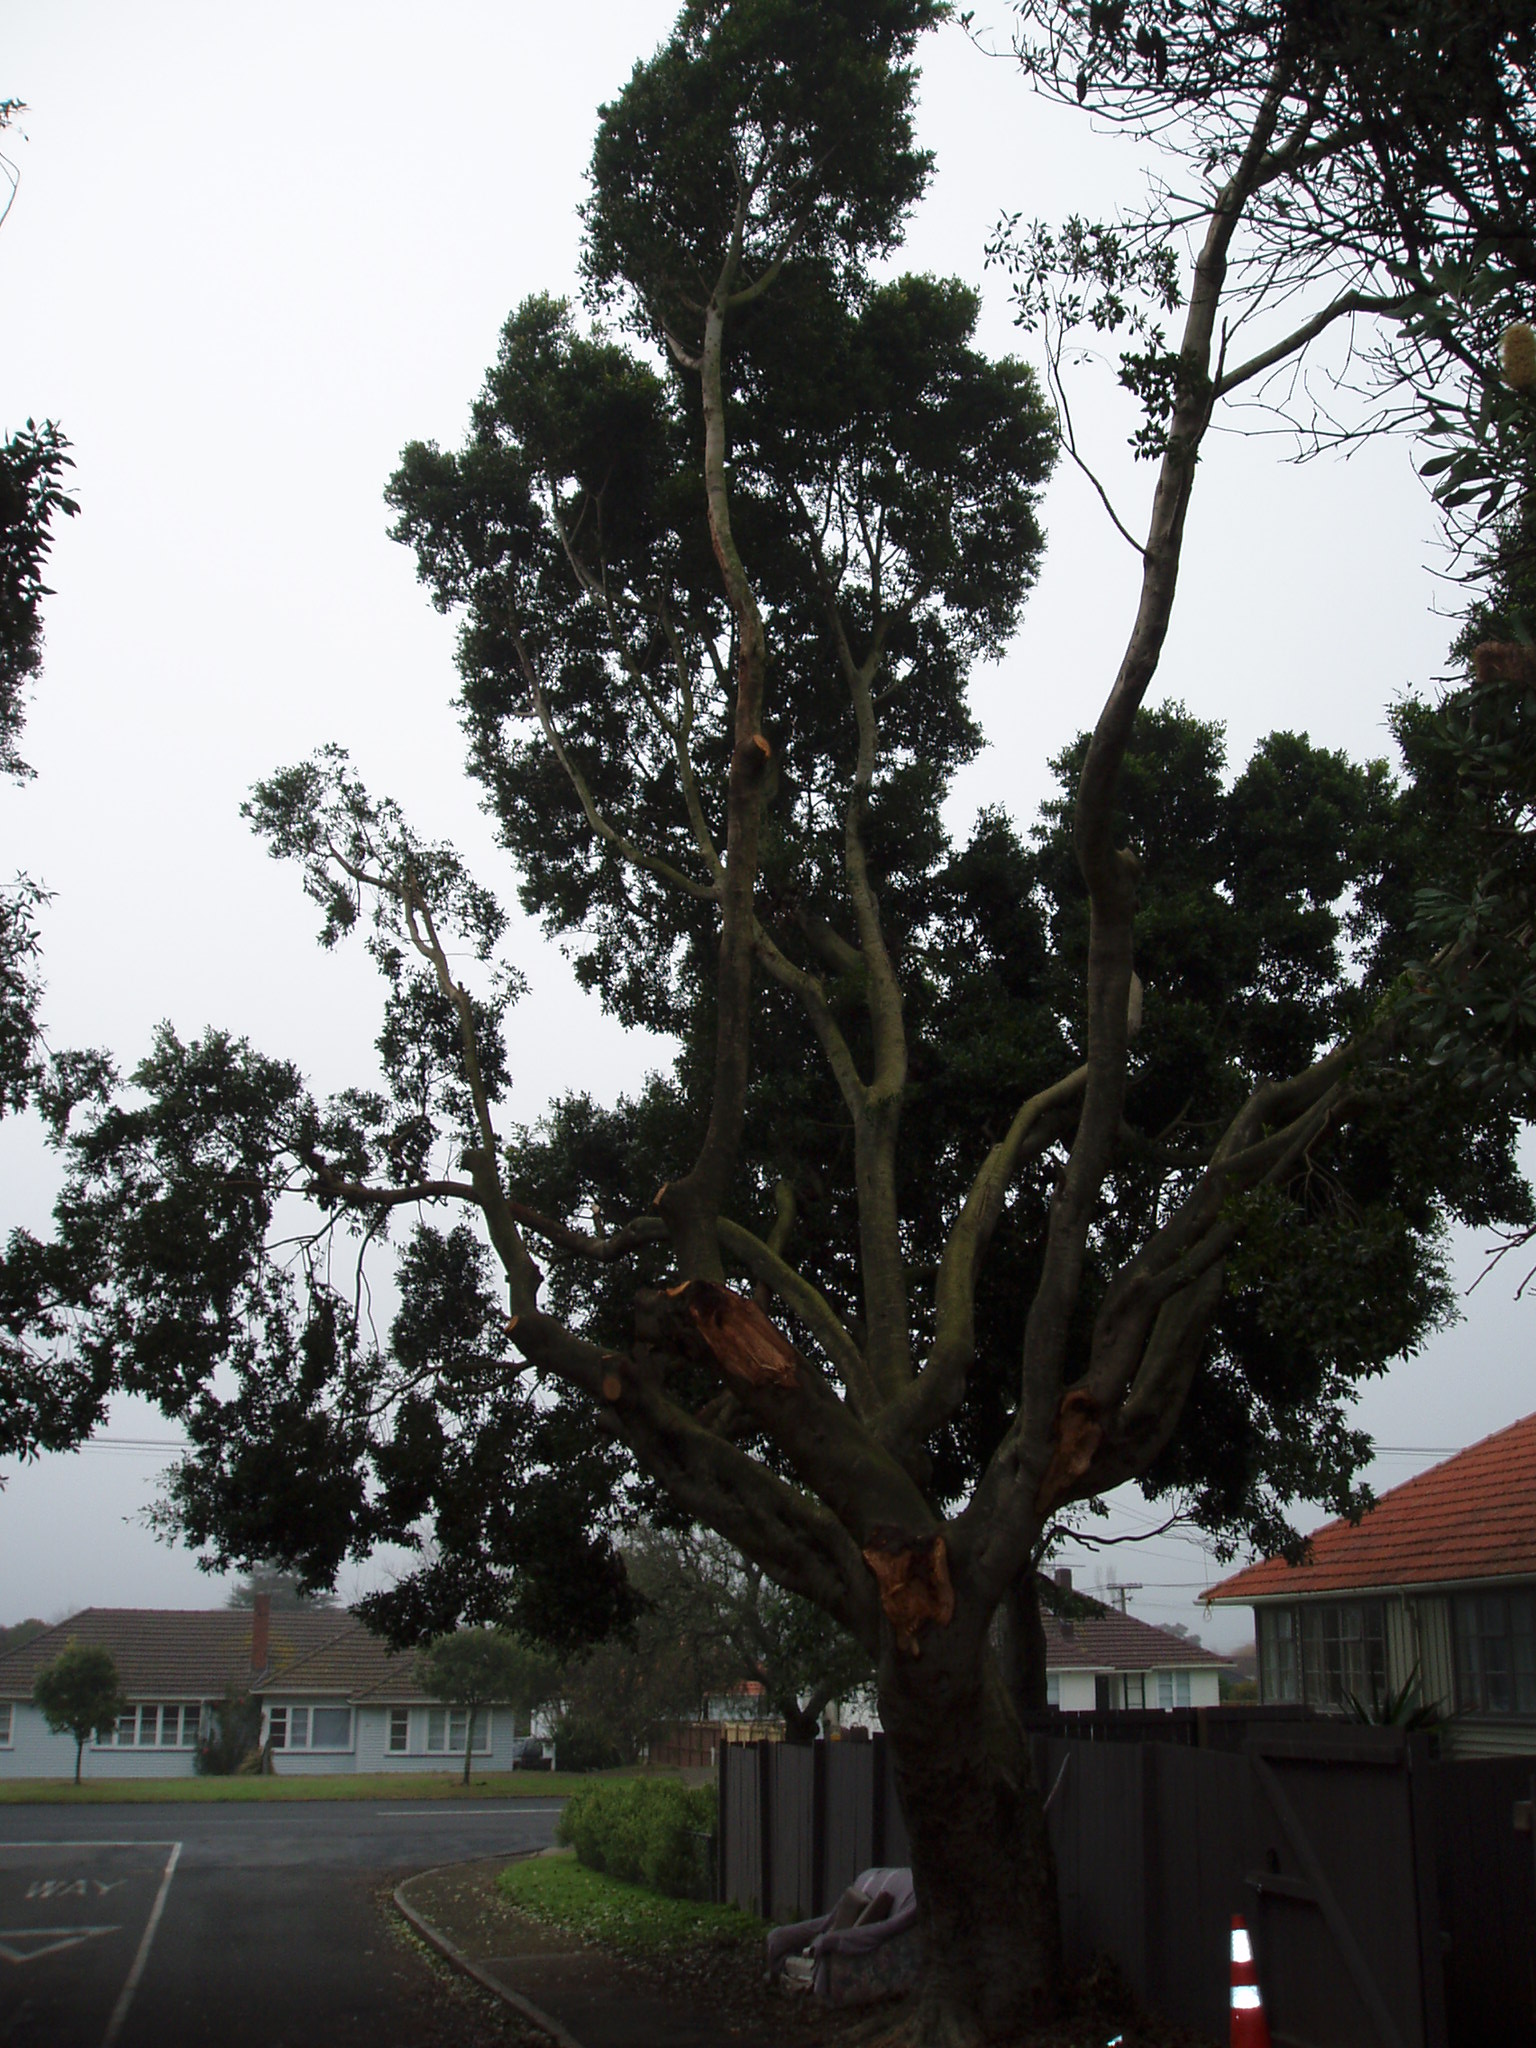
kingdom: Plantae
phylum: Tracheophyta
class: Magnoliopsida
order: Rosales
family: Moraceae
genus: Ficus
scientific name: Ficus rubiginosa
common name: Port jackson fig
